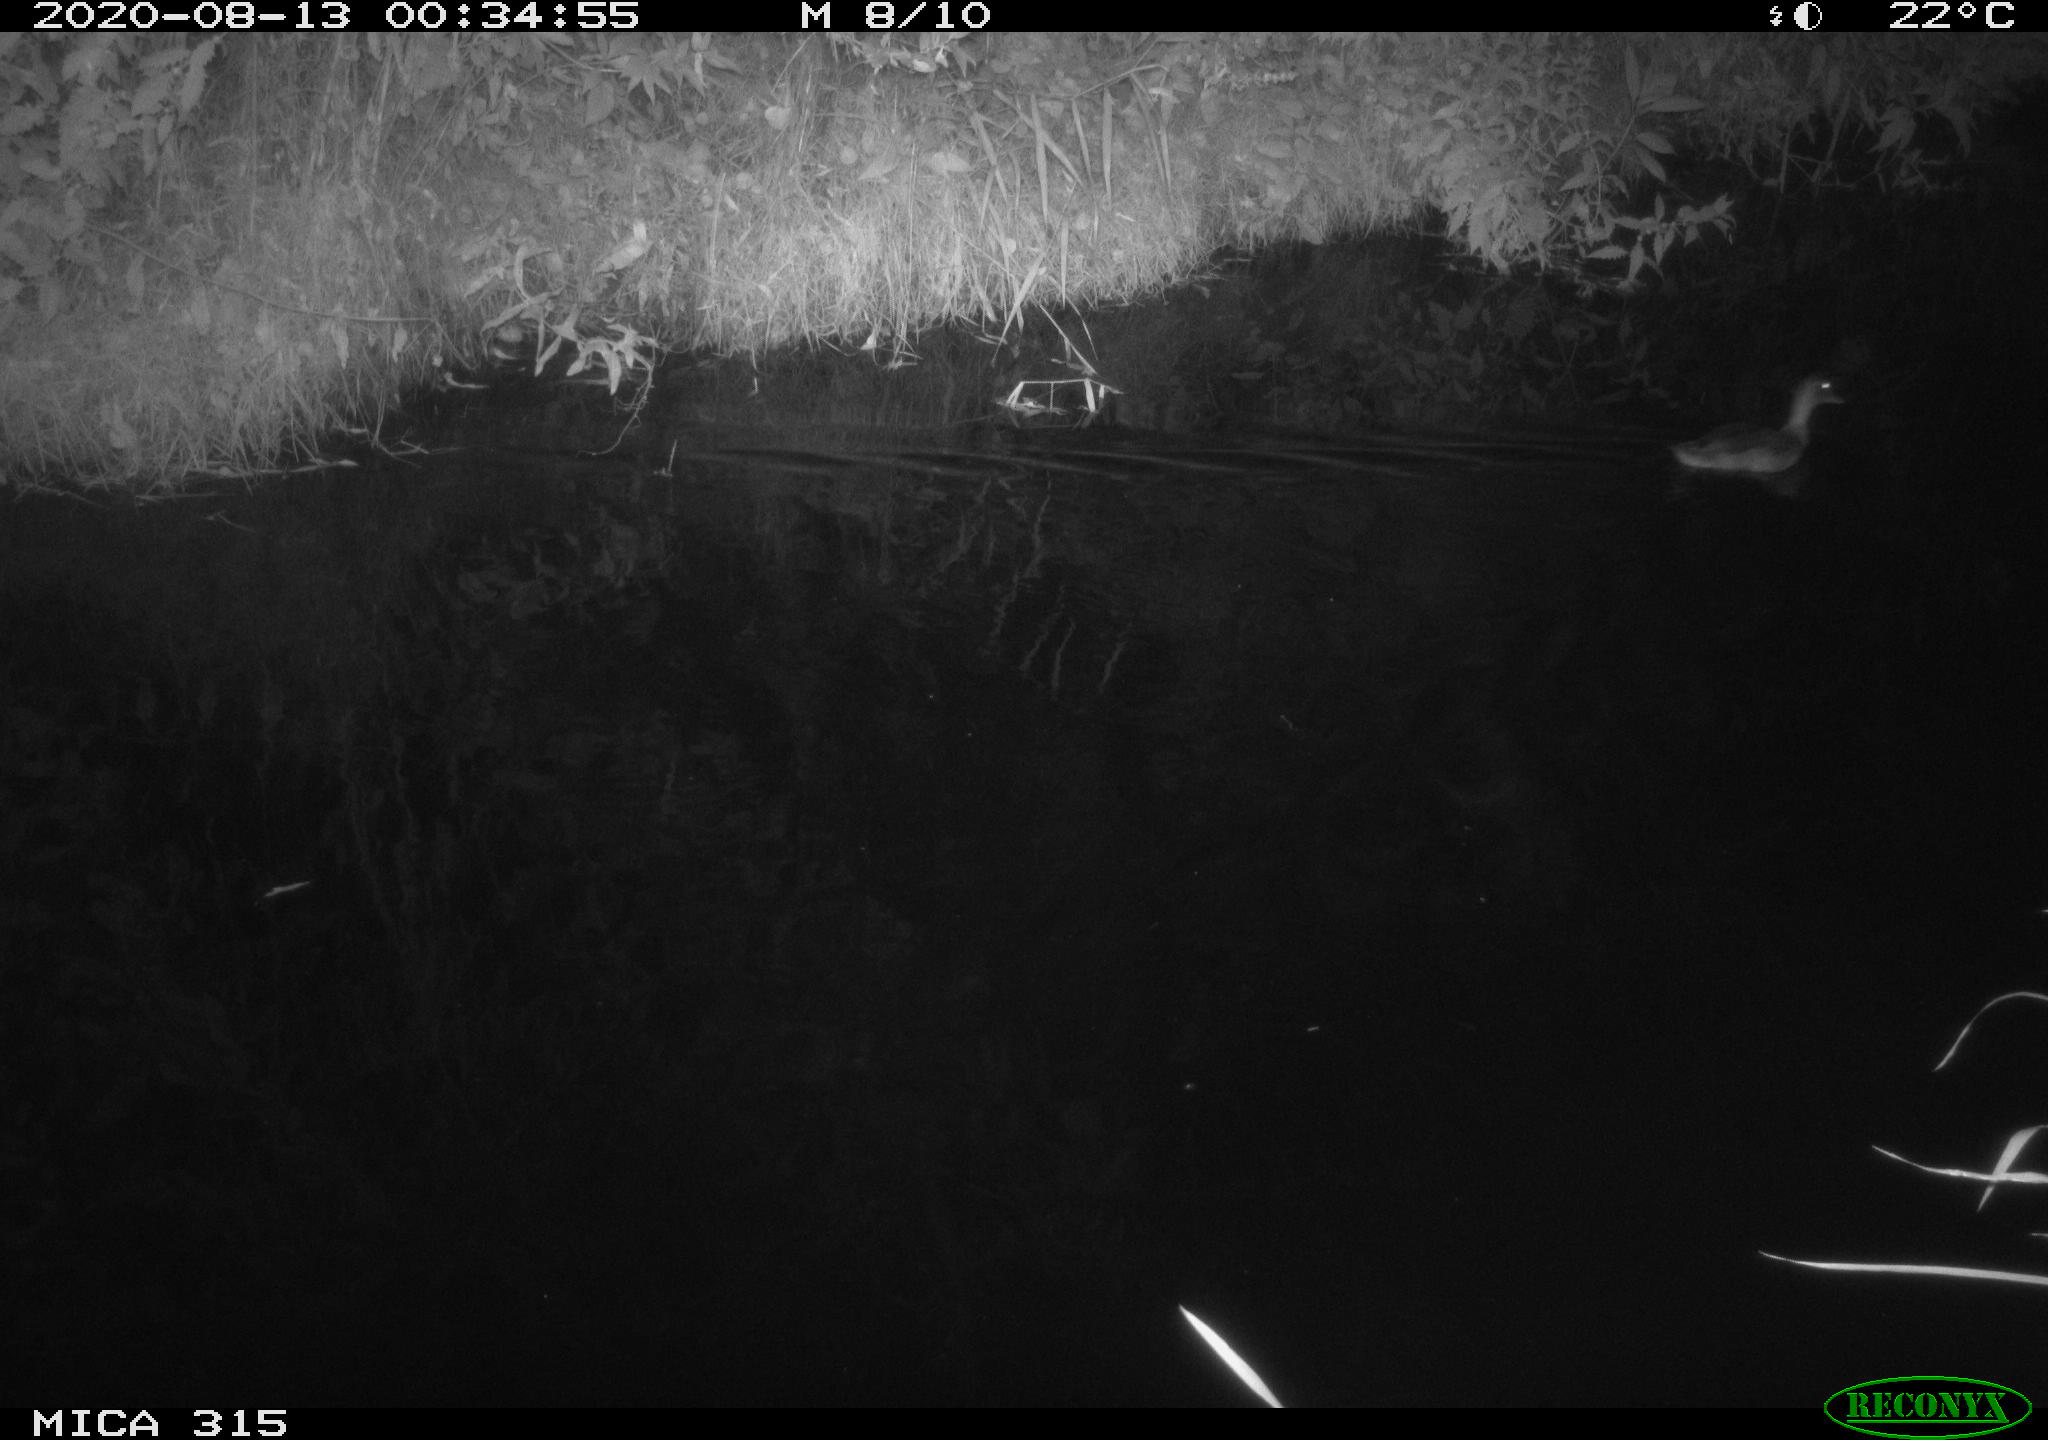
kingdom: Animalia
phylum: Chordata
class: Aves
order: Anseriformes
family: Anatidae
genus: Anas
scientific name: Anas platyrhynchos
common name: Mallard
